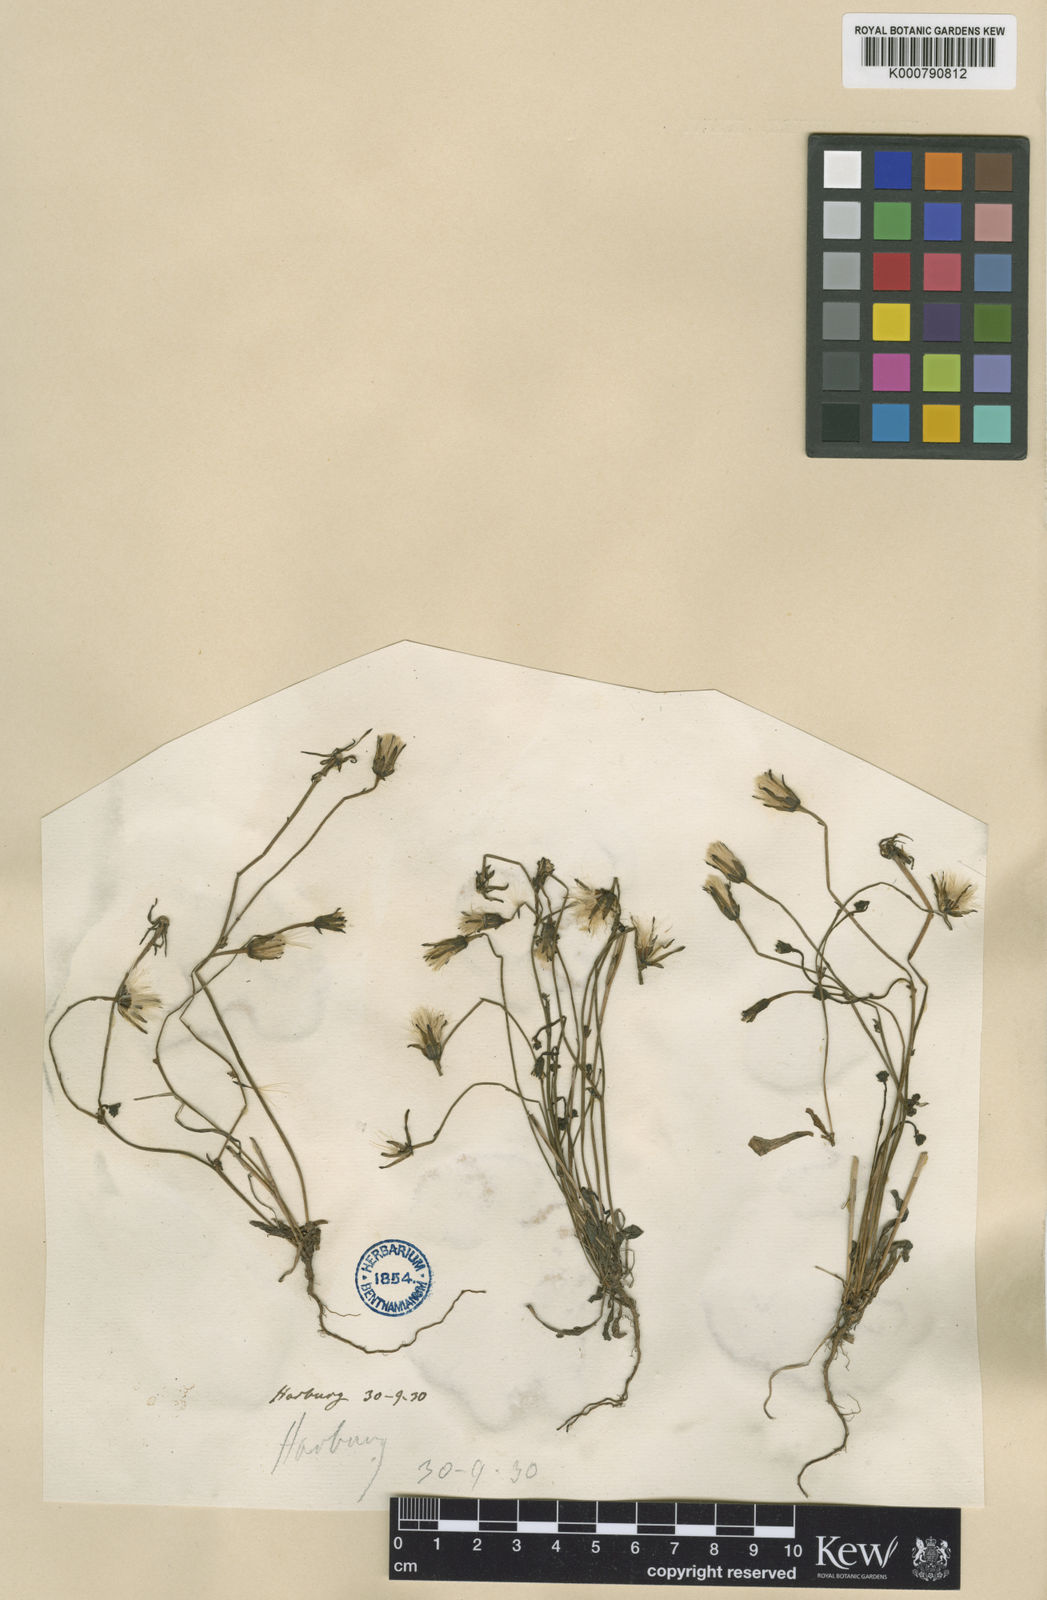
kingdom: Plantae
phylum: Tracheophyta
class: Magnoliopsida
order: Asterales
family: Asteraceae
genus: Hypochaeris
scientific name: Hypochaeris glabra
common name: Smooth catsear
